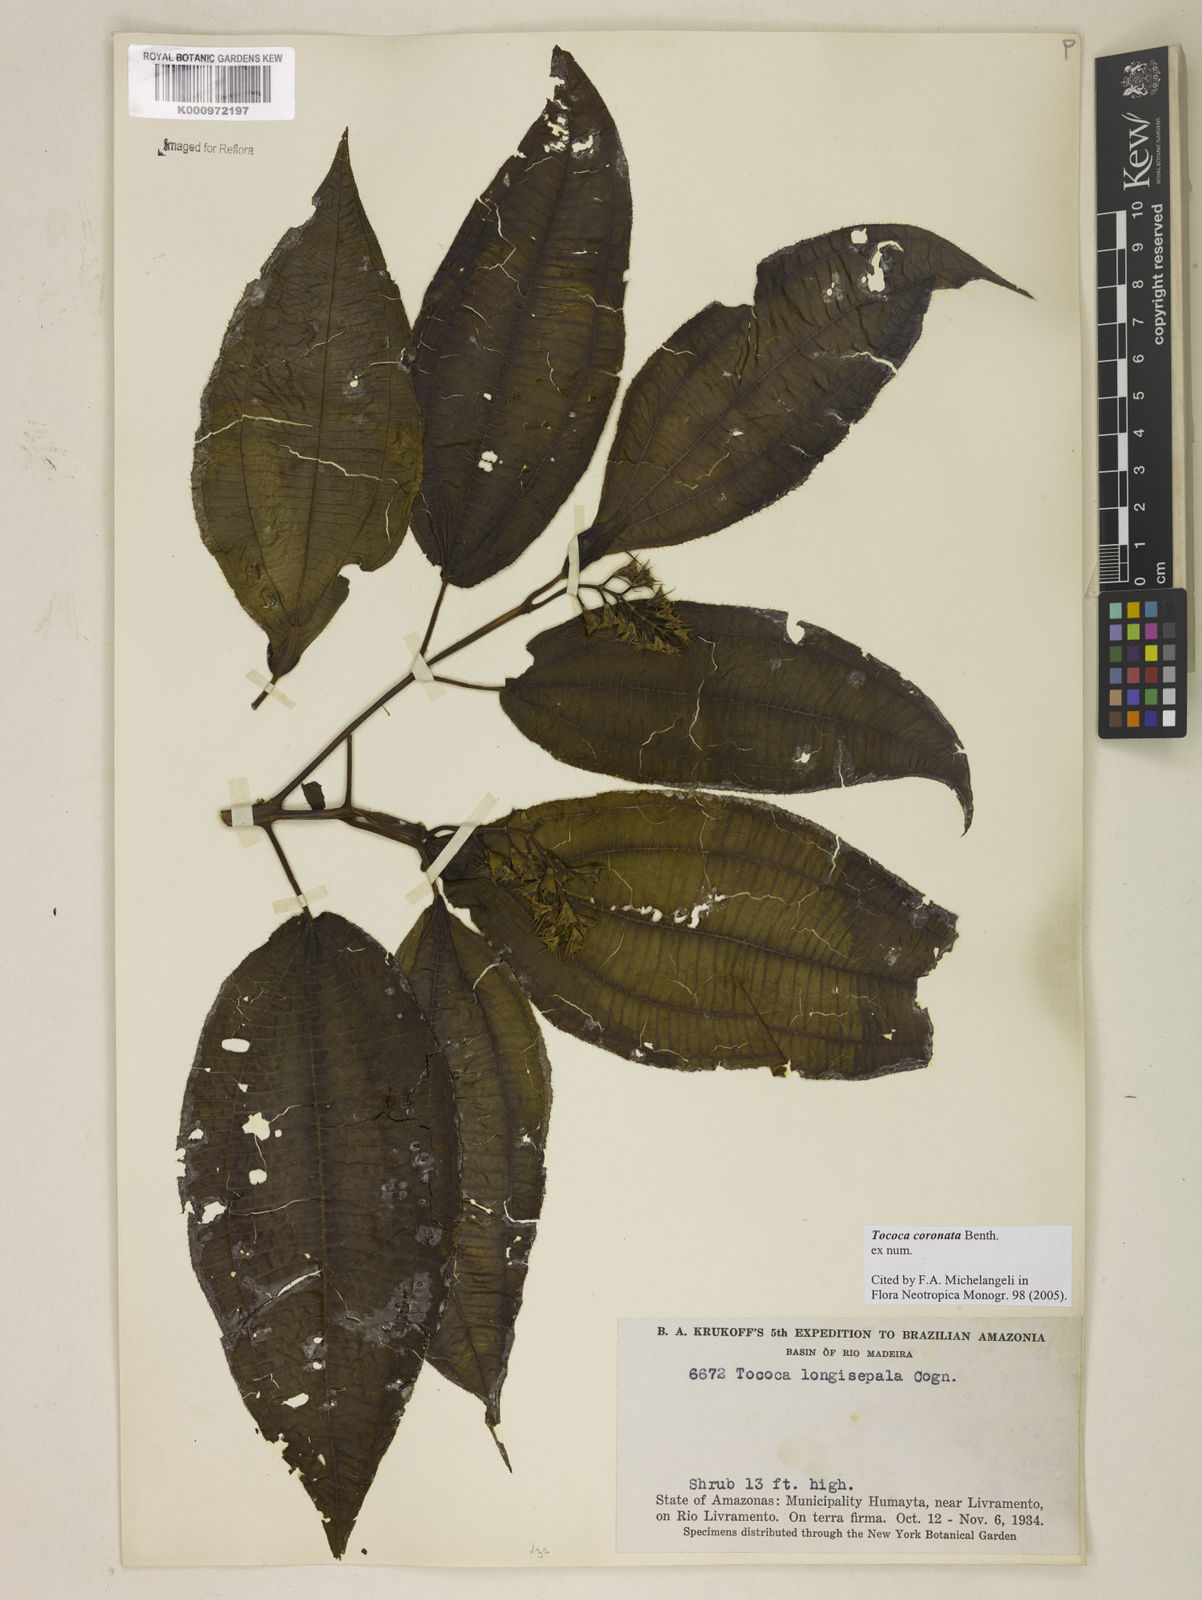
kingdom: Plantae
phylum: Tracheophyta
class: Magnoliopsida
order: Myrtales
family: Melastomataceae
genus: Miconia
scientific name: Miconia tococoronata
